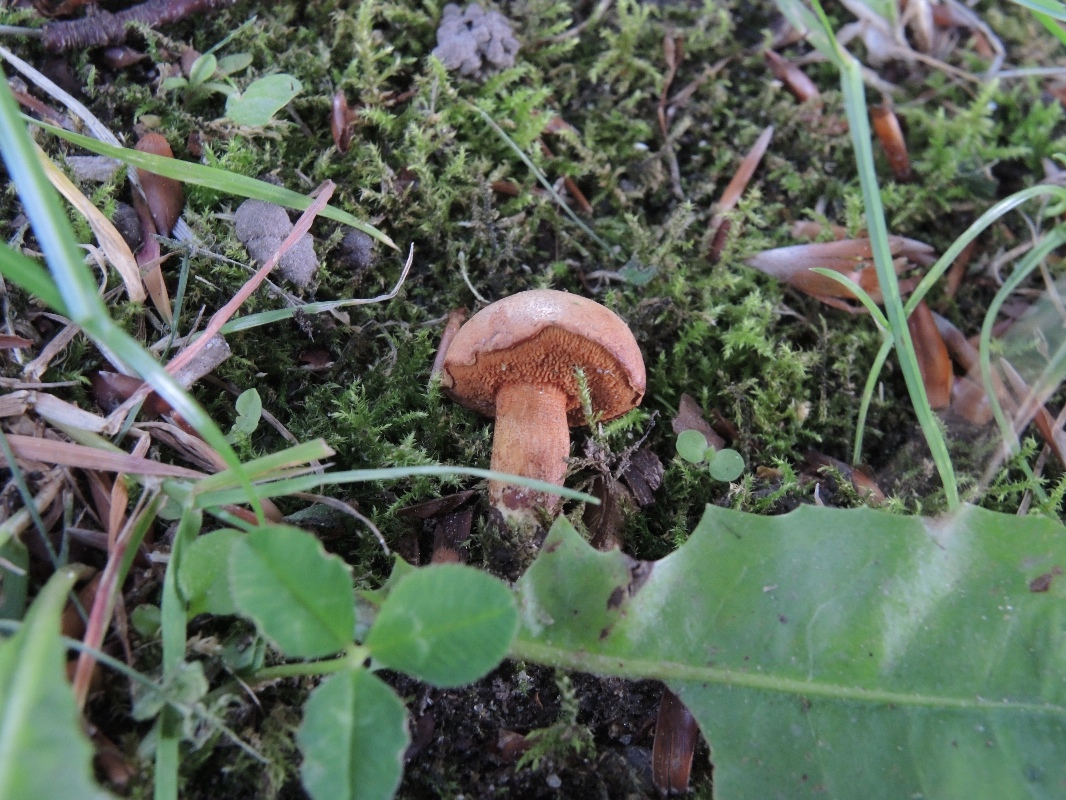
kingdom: Fungi
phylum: Basidiomycota
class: Agaricomycetes
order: Boletales
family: Boletaceae
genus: Chalciporus
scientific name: Chalciporus piperatus
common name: peberrørhat
